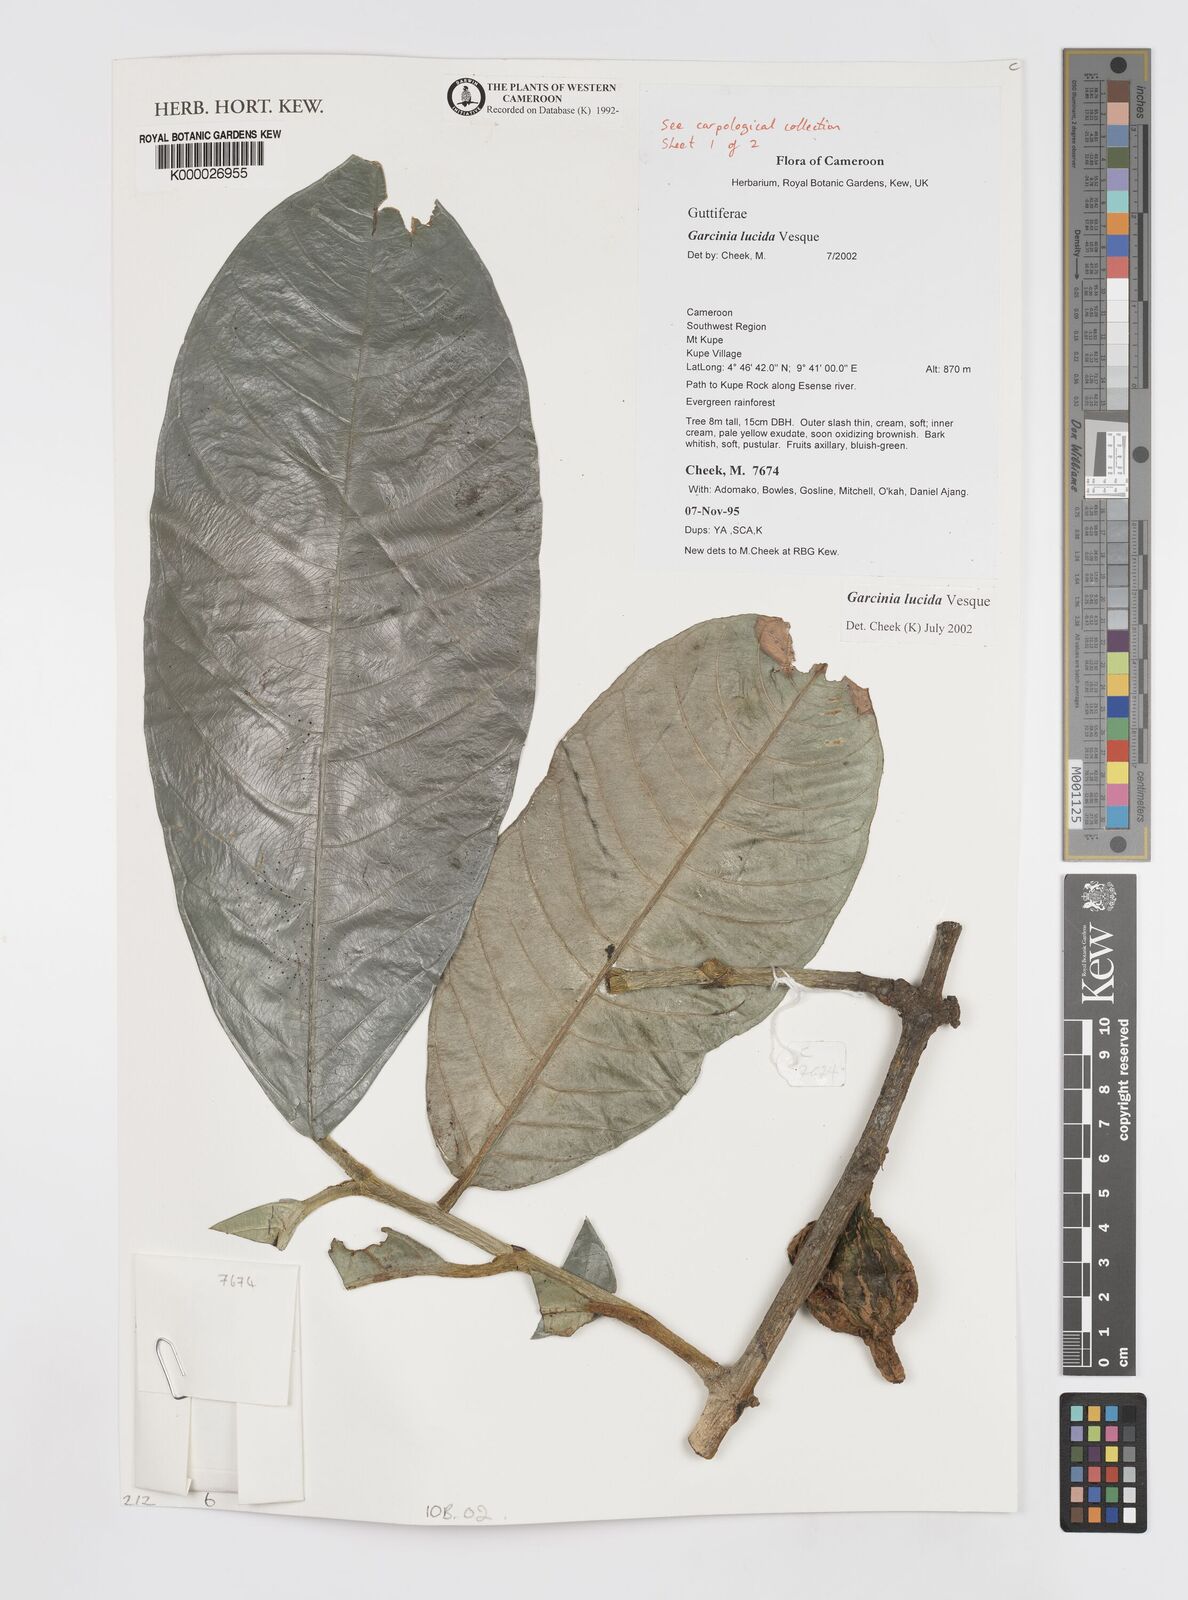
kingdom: Plantae
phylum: Tracheophyta
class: Magnoliopsida
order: Malpighiales
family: Clusiaceae
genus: Garcinia
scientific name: Garcinia lucida
